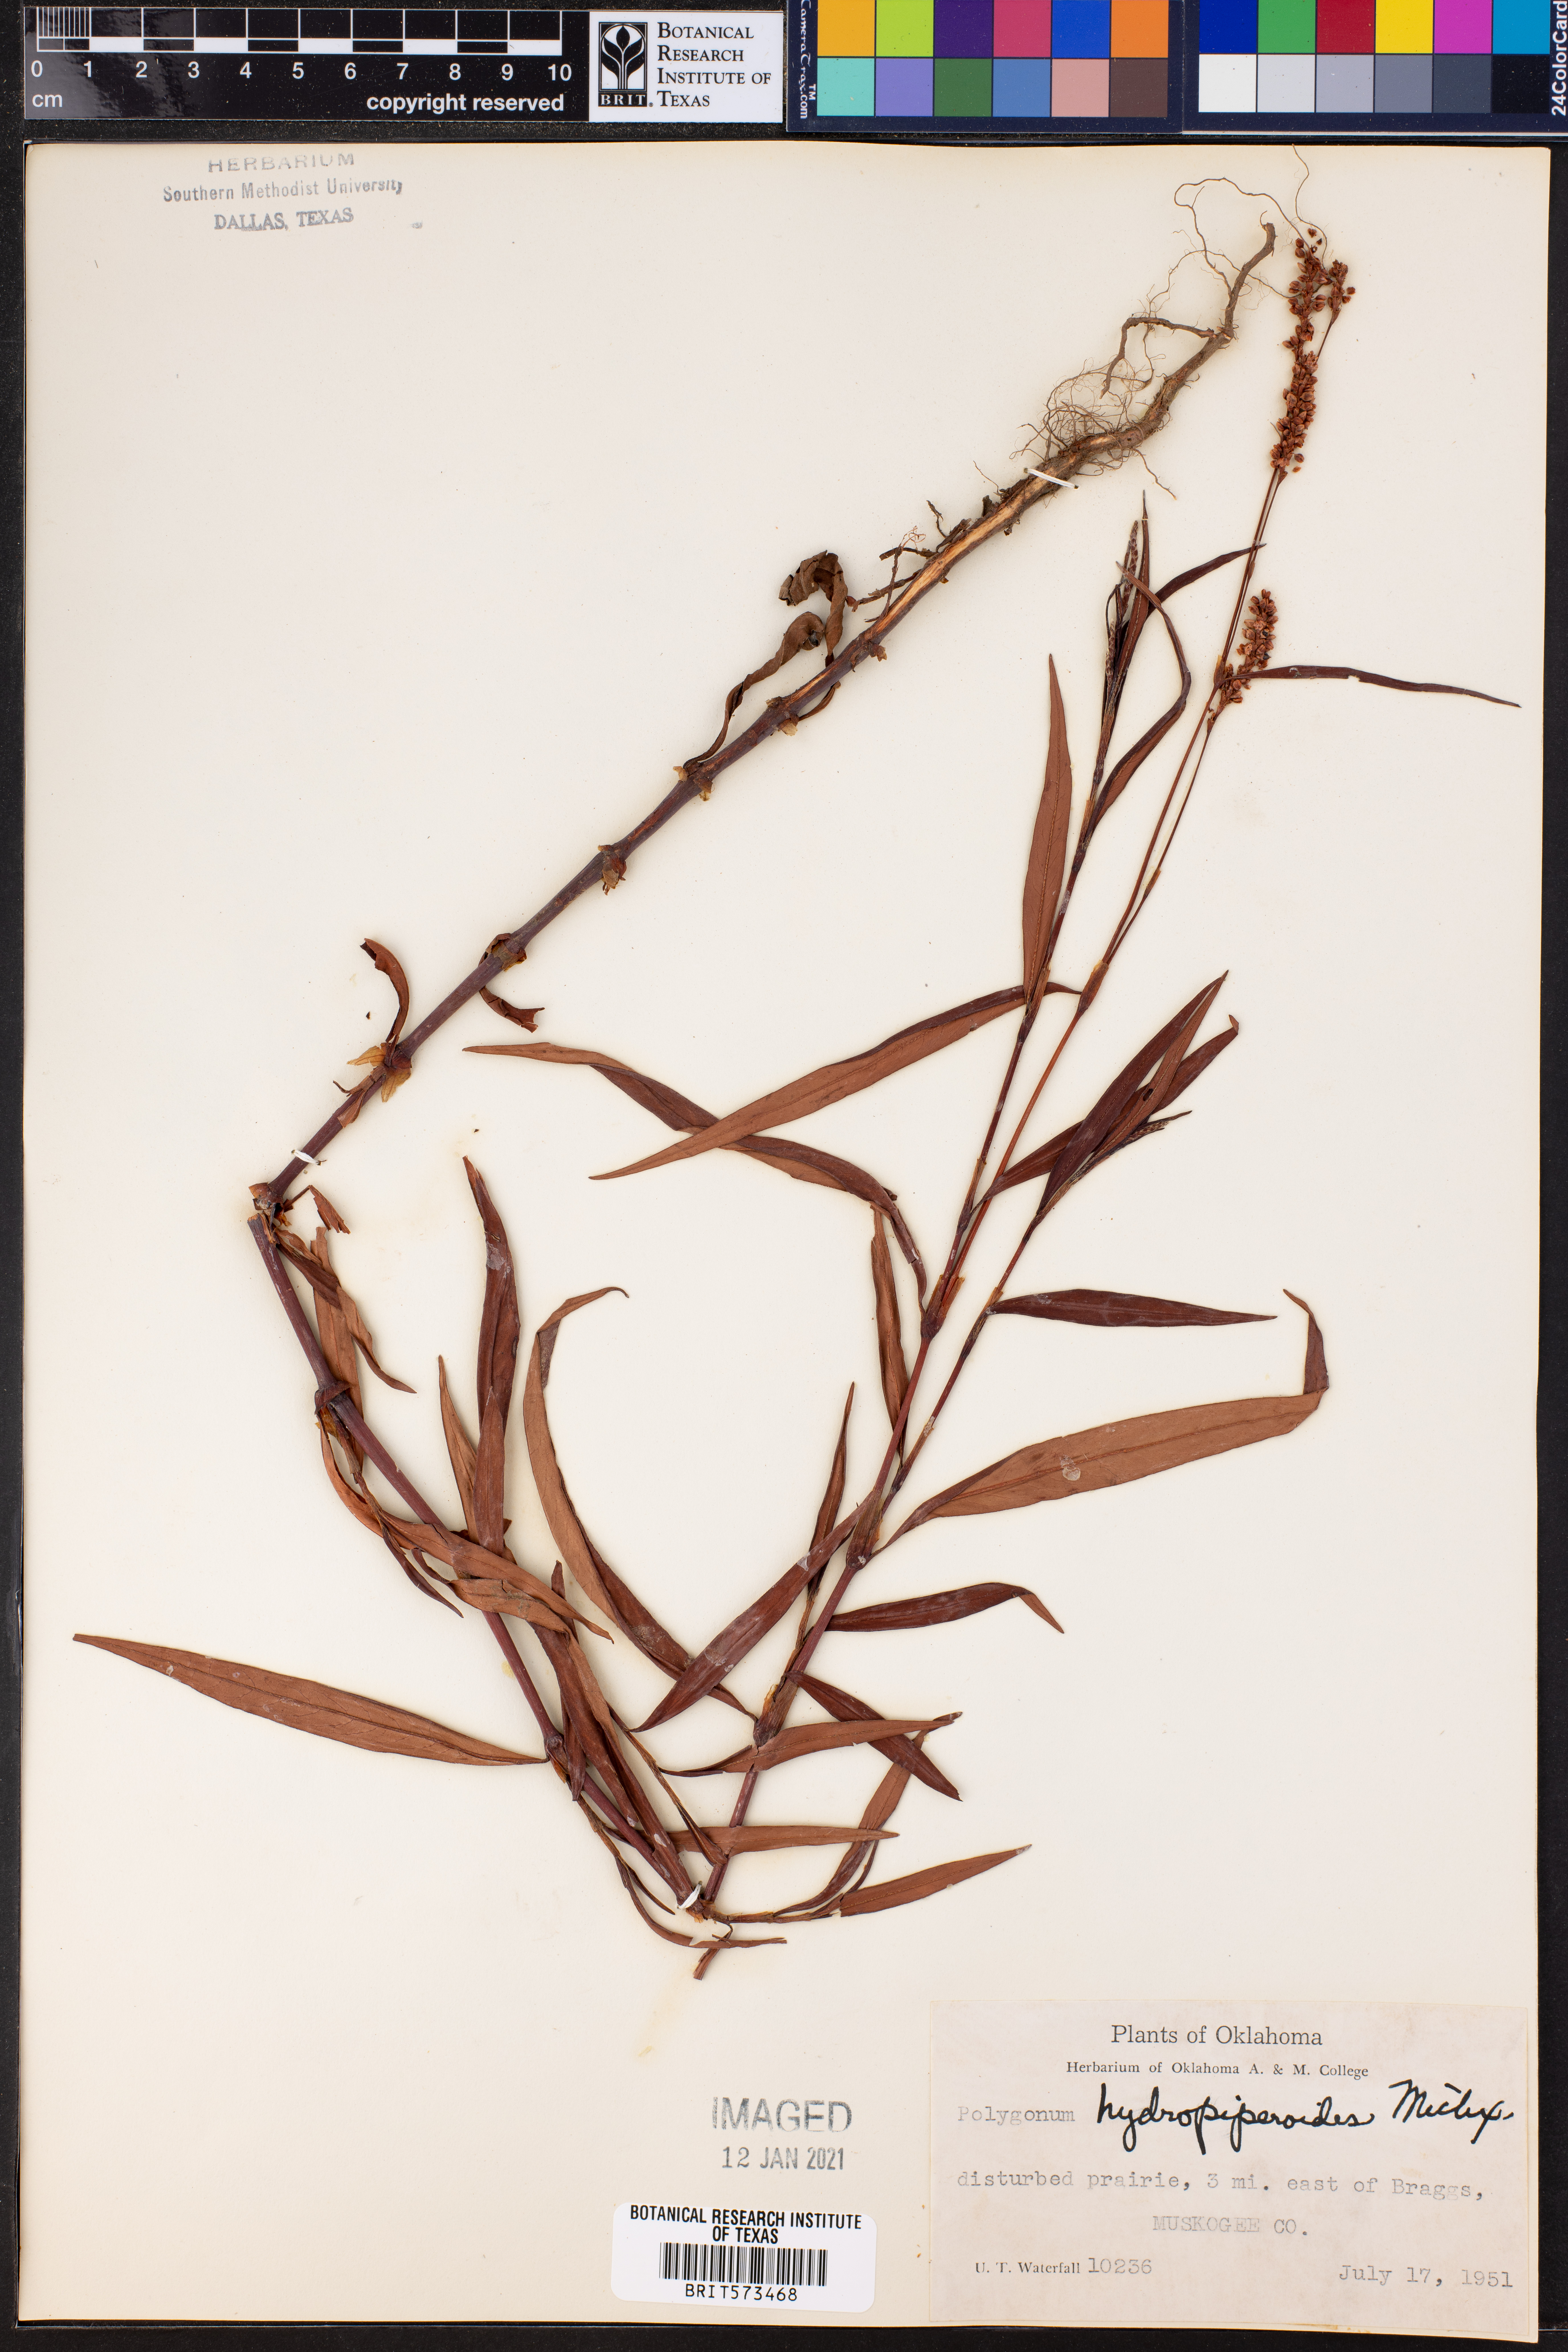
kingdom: Plantae
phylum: Tracheophyta
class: Magnoliopsida
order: Caryophyllales
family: Polygonaceae
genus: Persicaria
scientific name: Persicaria hydropiperoides
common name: Swamp smartweed
